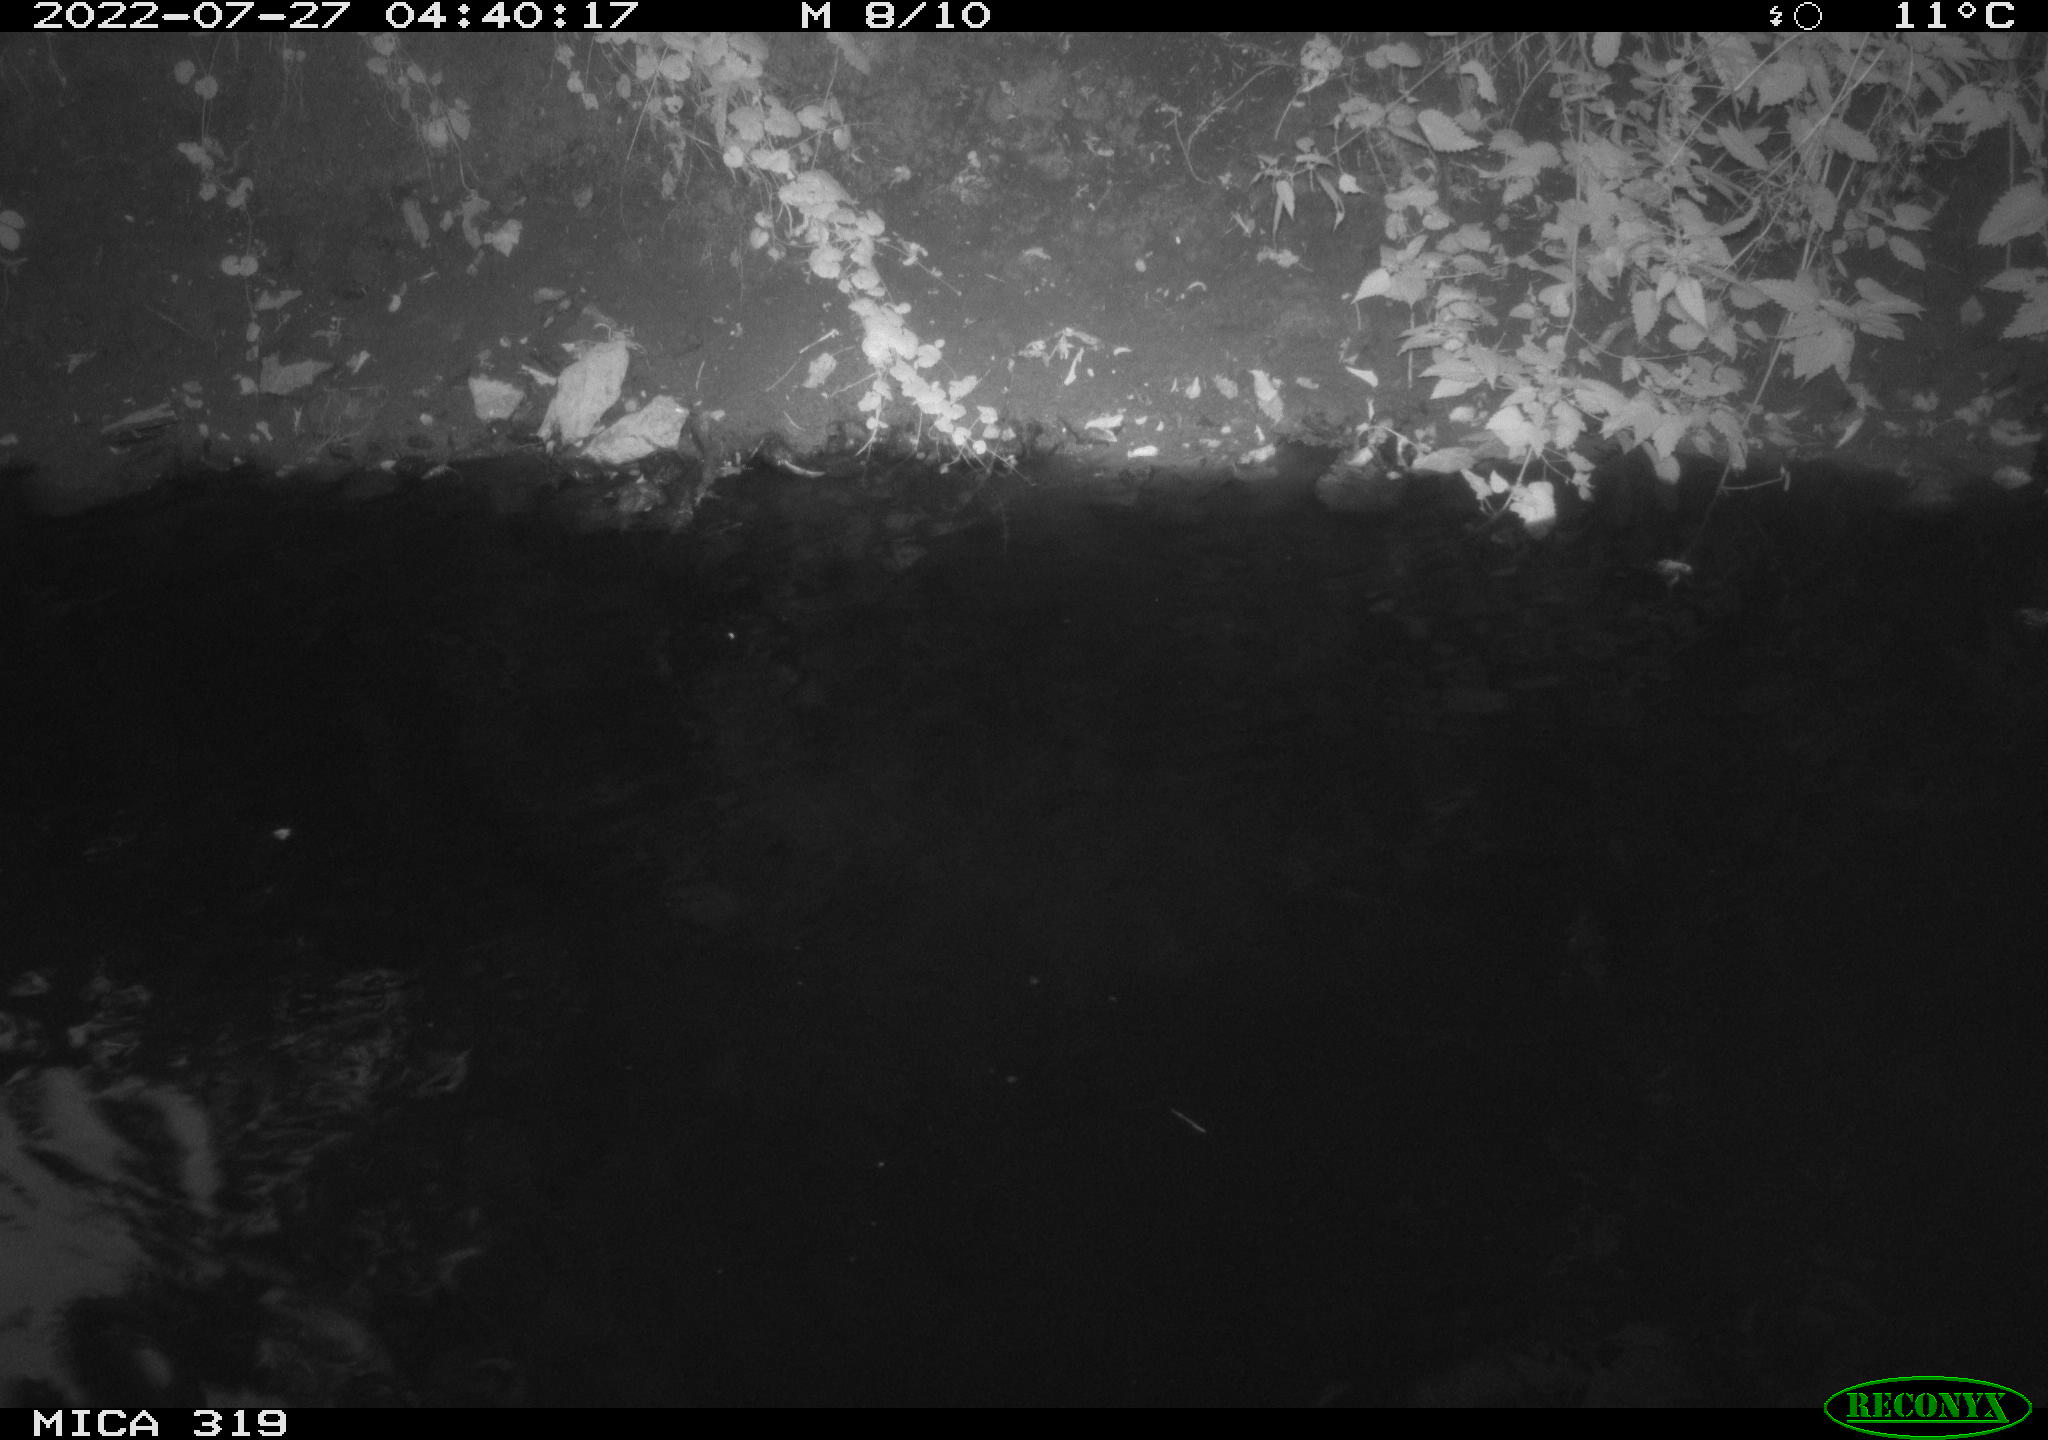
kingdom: Animalia
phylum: Chordata
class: Aves
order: Anseriformes
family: Anatidae
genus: Anas
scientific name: Anas
